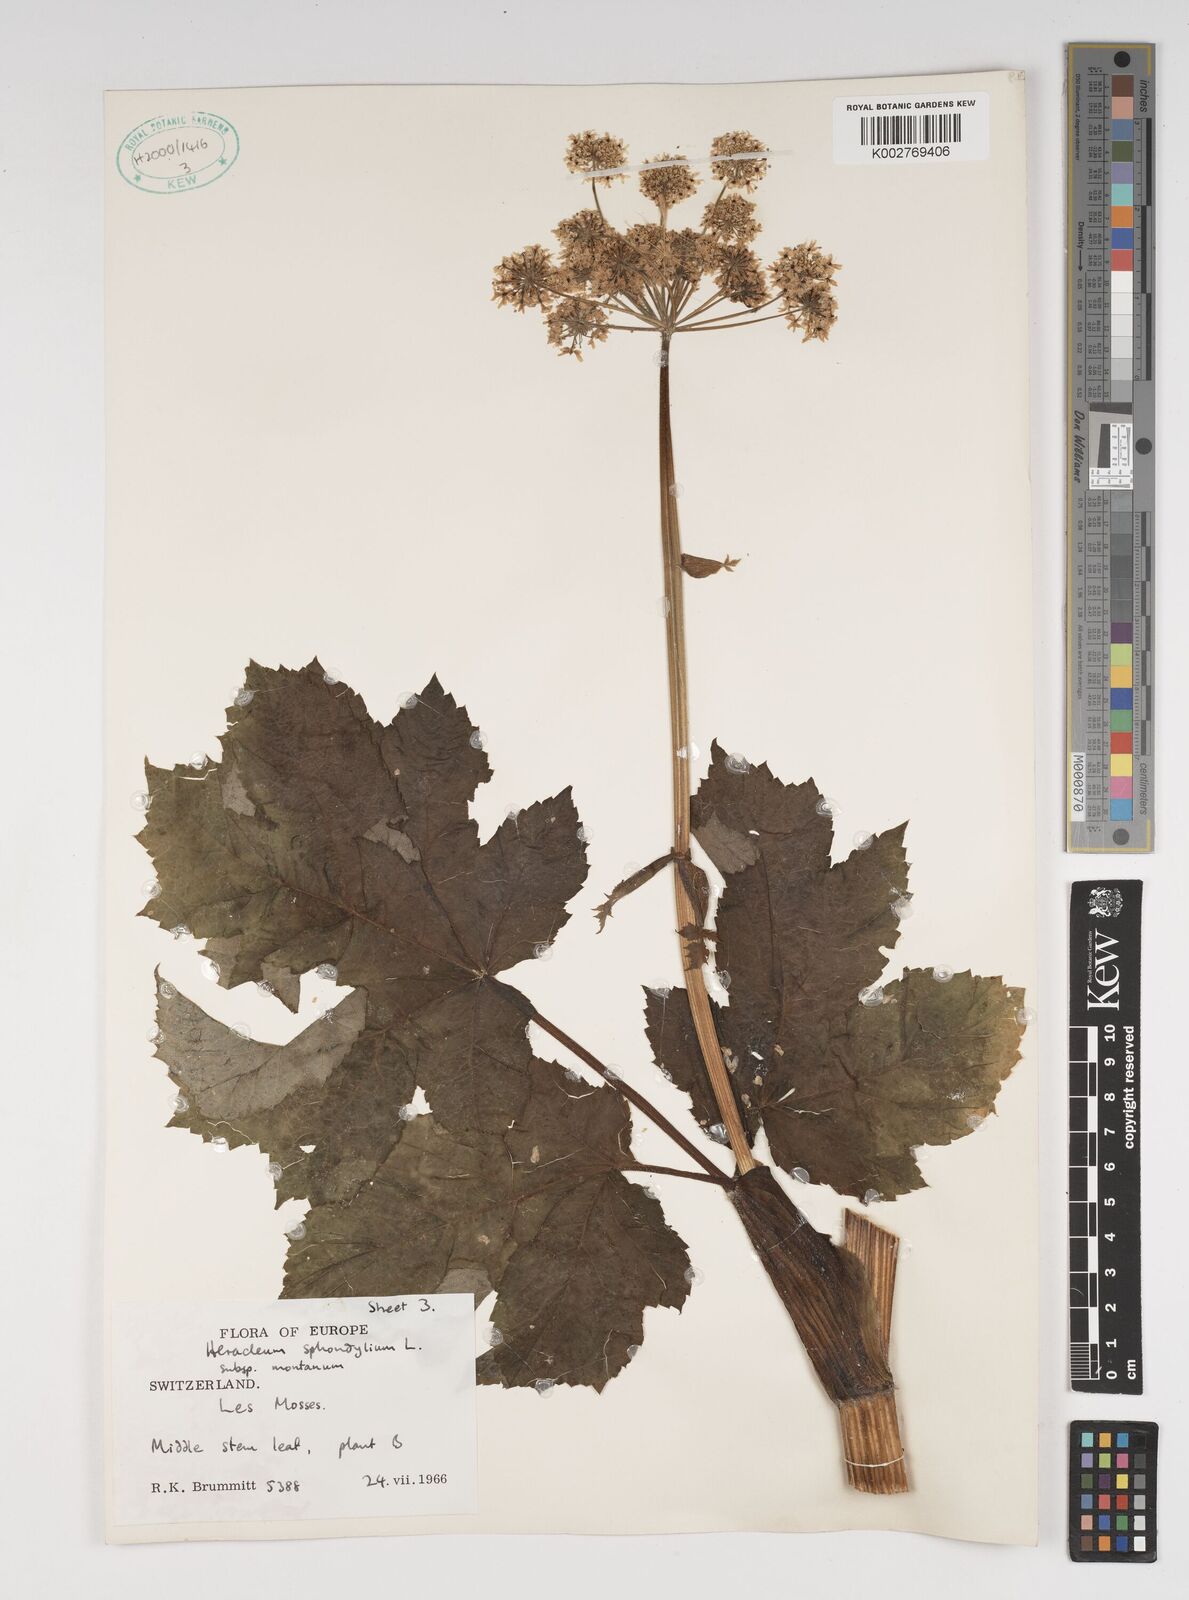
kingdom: Plantae
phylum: Tracheophyta
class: Magnoliopsida
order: Apiales
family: Apiaceae
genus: Heracleum
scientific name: Heracleum sphondylium
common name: Hogweed
